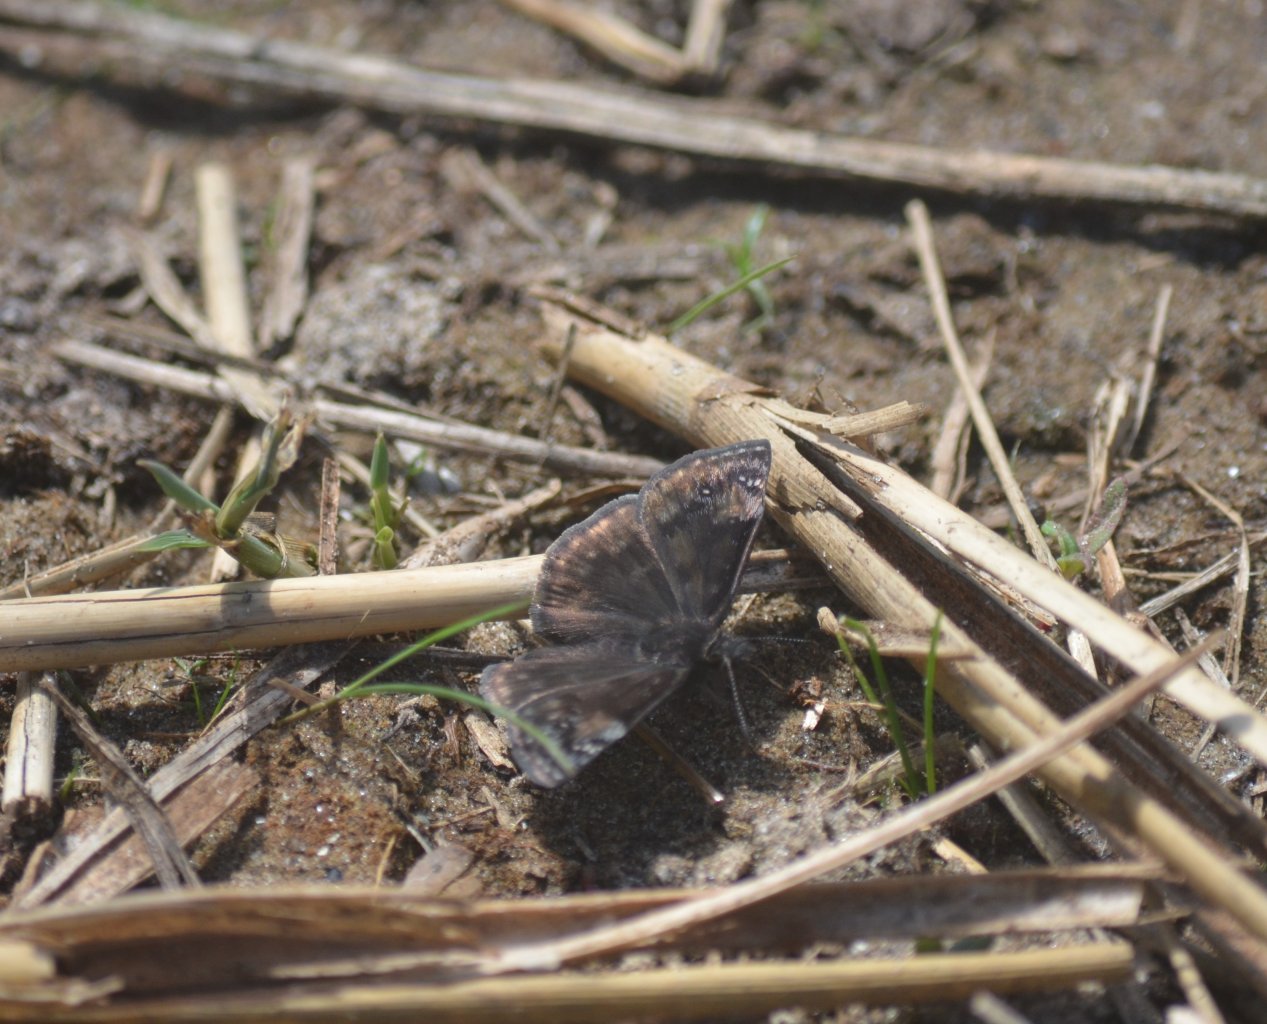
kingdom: Animalia
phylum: Arthropoda
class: Insecta
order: Lepidoptera
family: Hesperiidae
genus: Gesta
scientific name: Gesta
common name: Wild Indigo Duskywing
